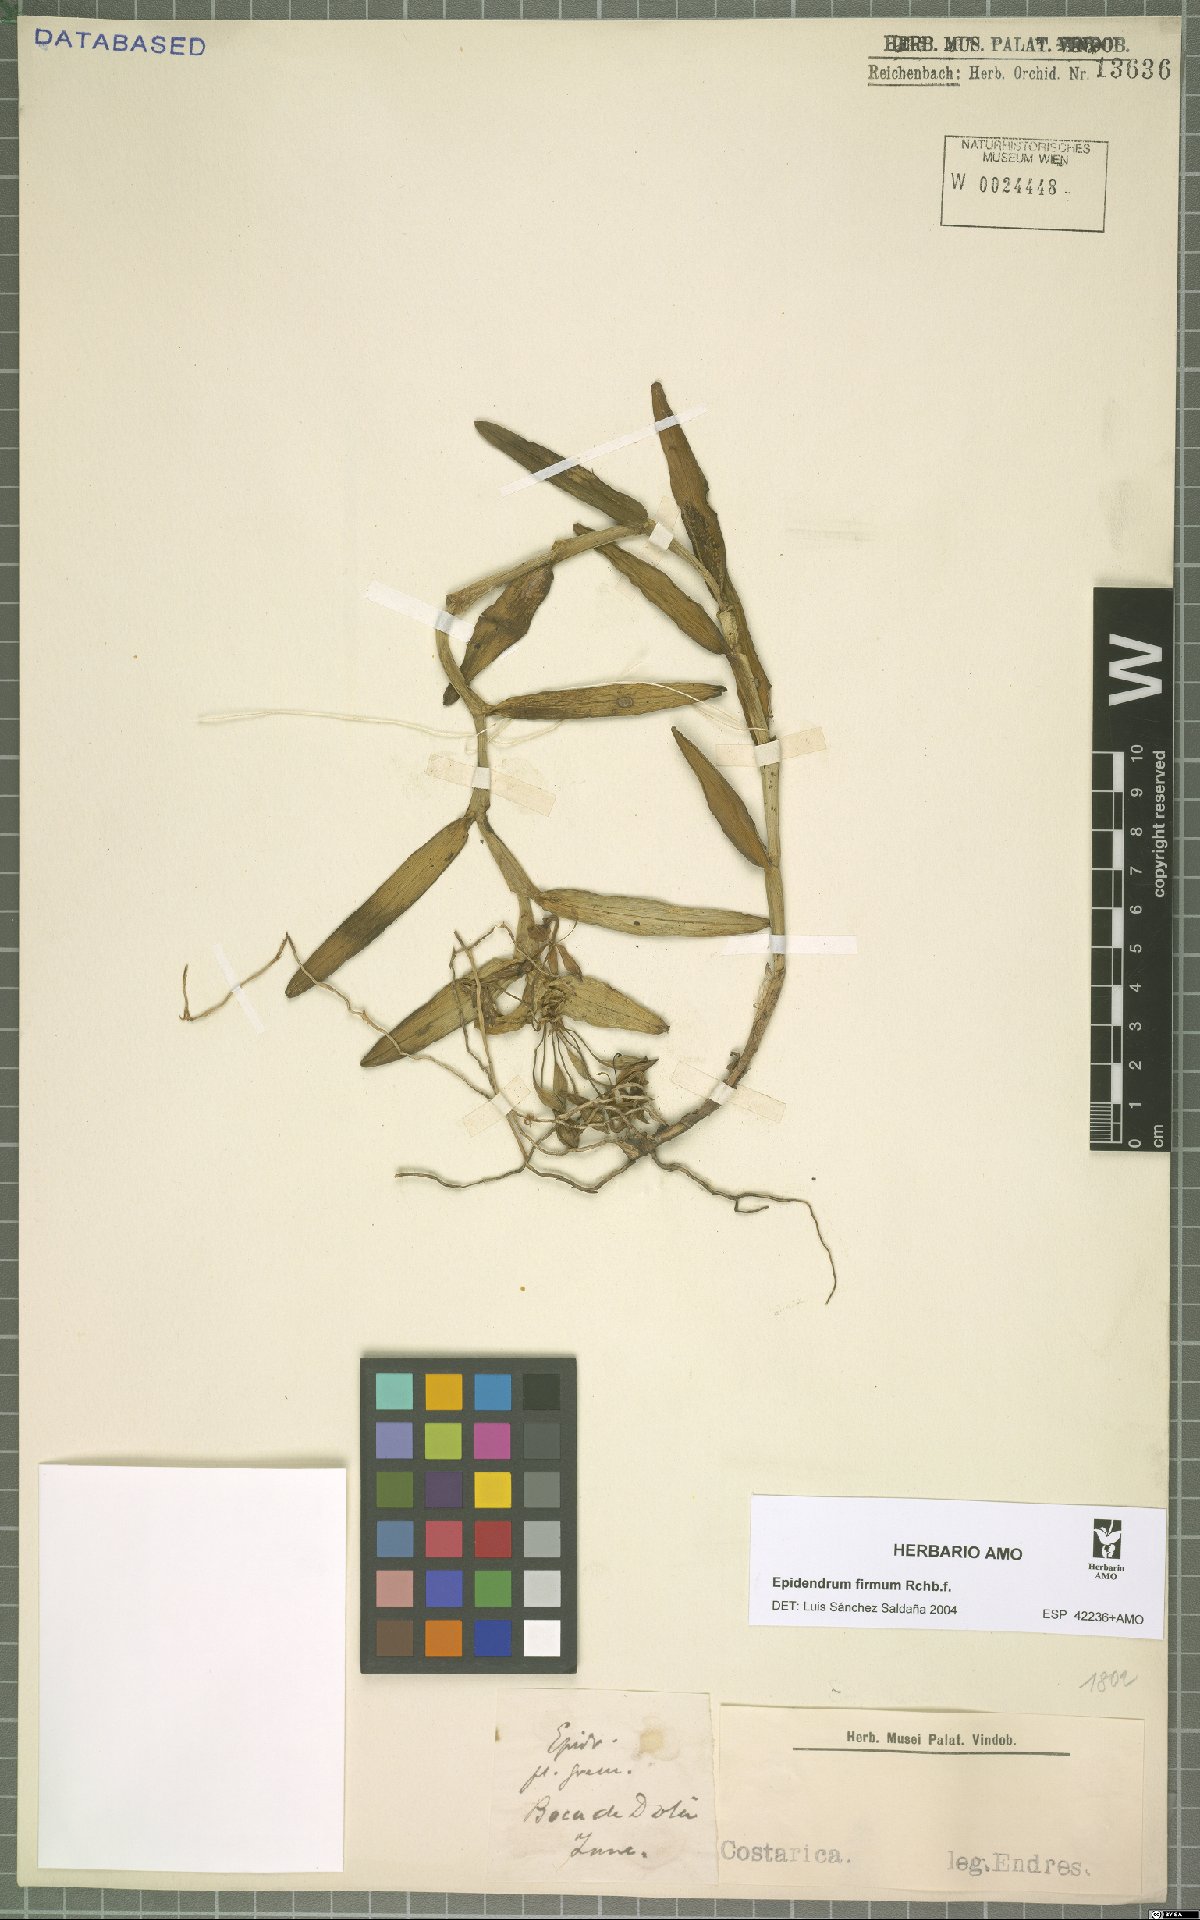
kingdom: Plantae
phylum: Tracheophyta
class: Liliopsida
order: Asparagales
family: Orchidaceae
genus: Epidendrum
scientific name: Epidendrum firmum
